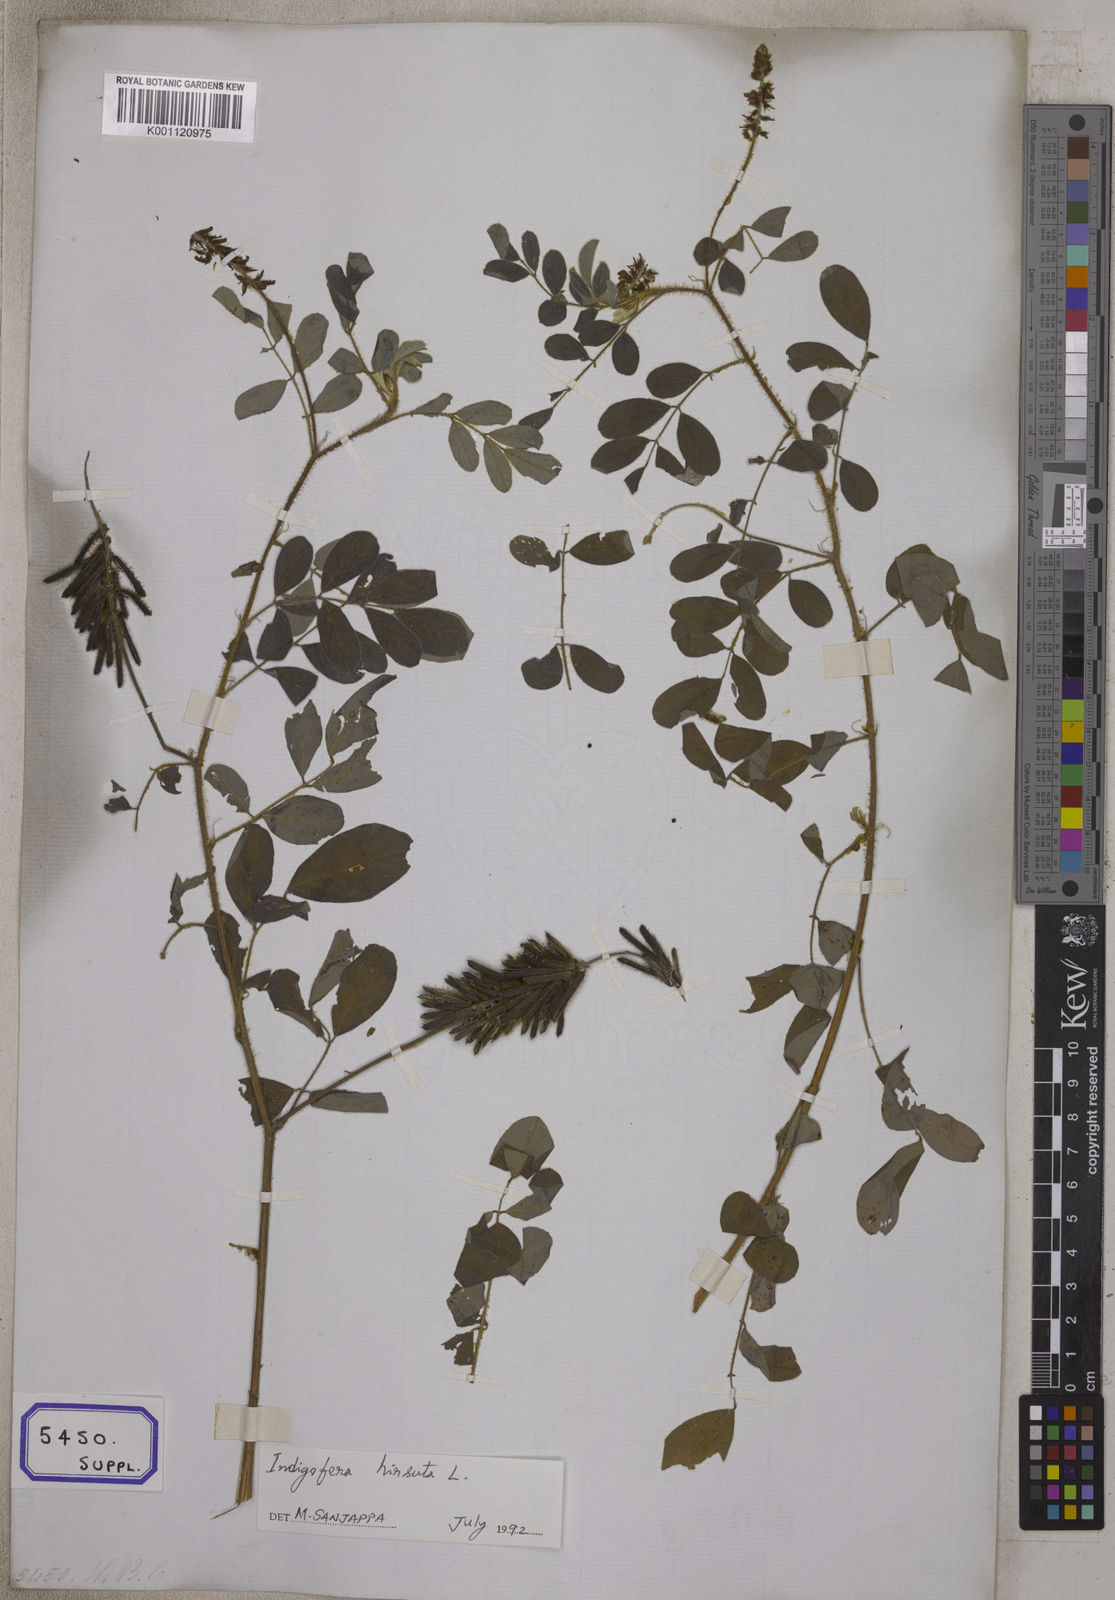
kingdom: Plantae
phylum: Tracheophyta
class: Magnoliopsida
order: Fabales
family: Fabaceae
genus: Indigofera
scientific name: Indigofera hirsuta
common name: Hairy indigo
